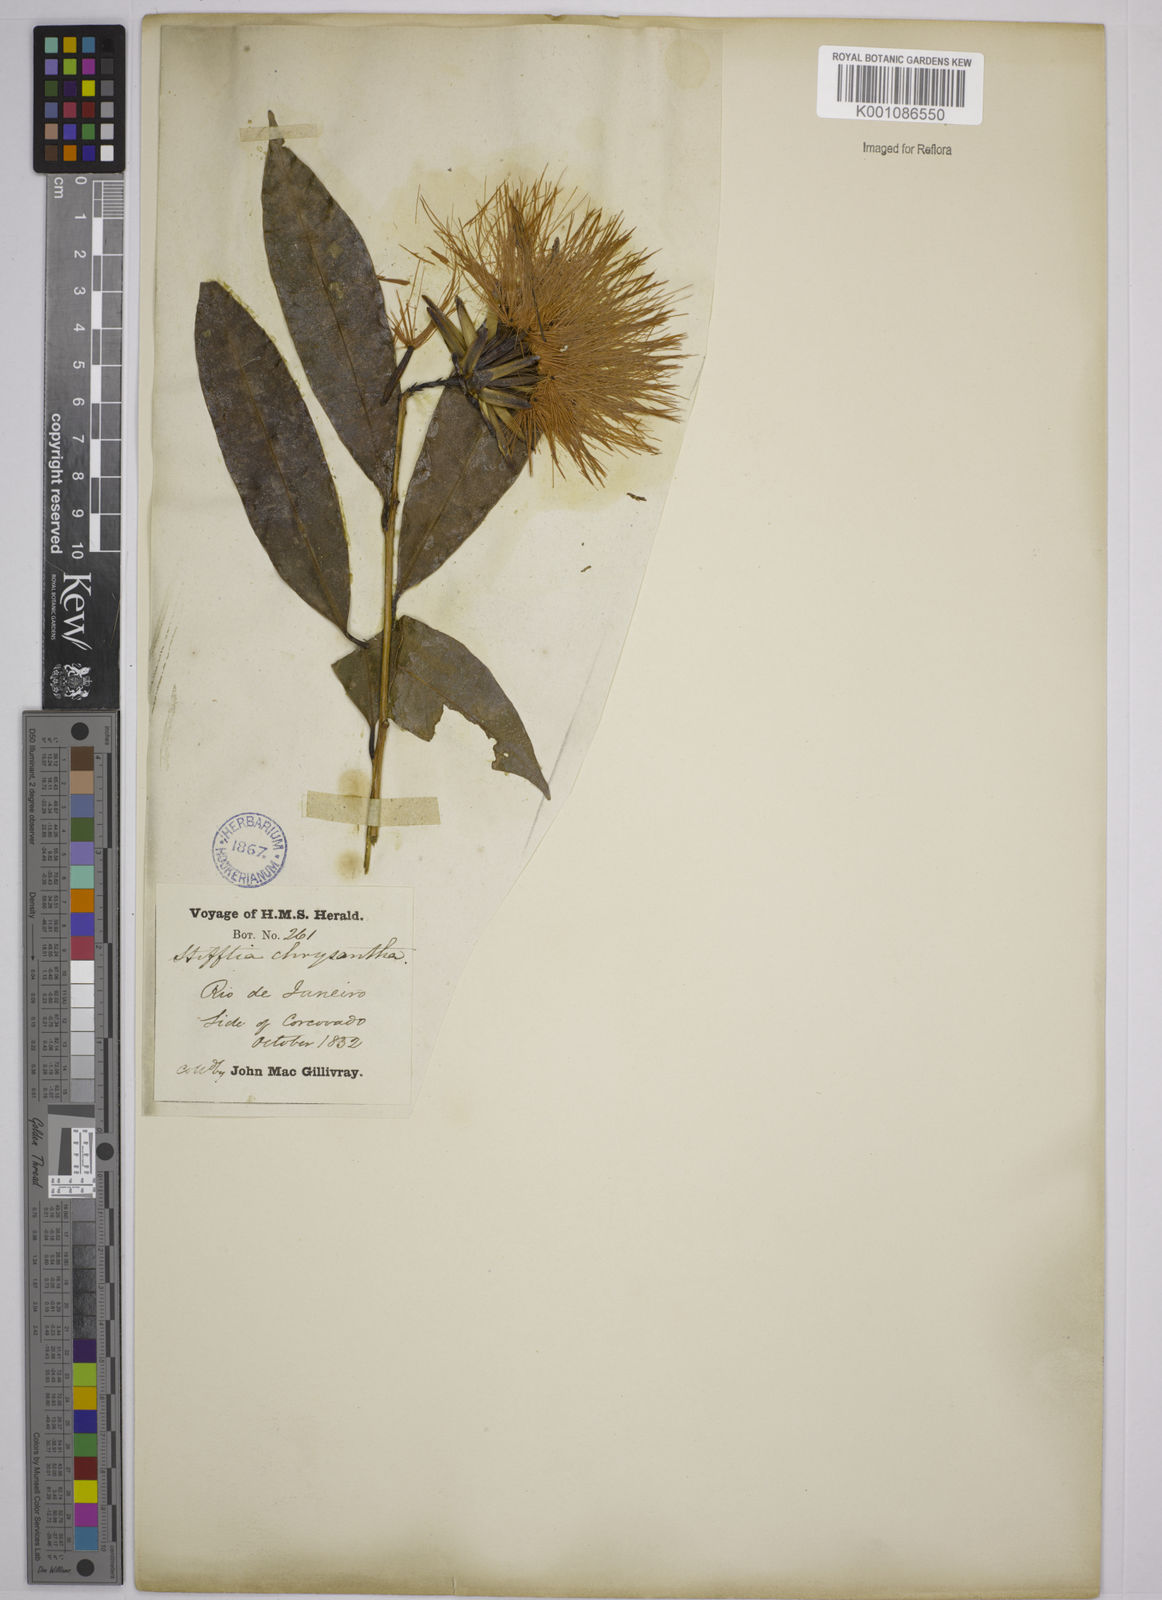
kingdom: Plantae
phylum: Tracheophyta
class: Magnoliopsida
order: Asterales
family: Asteraceae
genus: Stifftia
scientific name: Stifftia chrysantha
